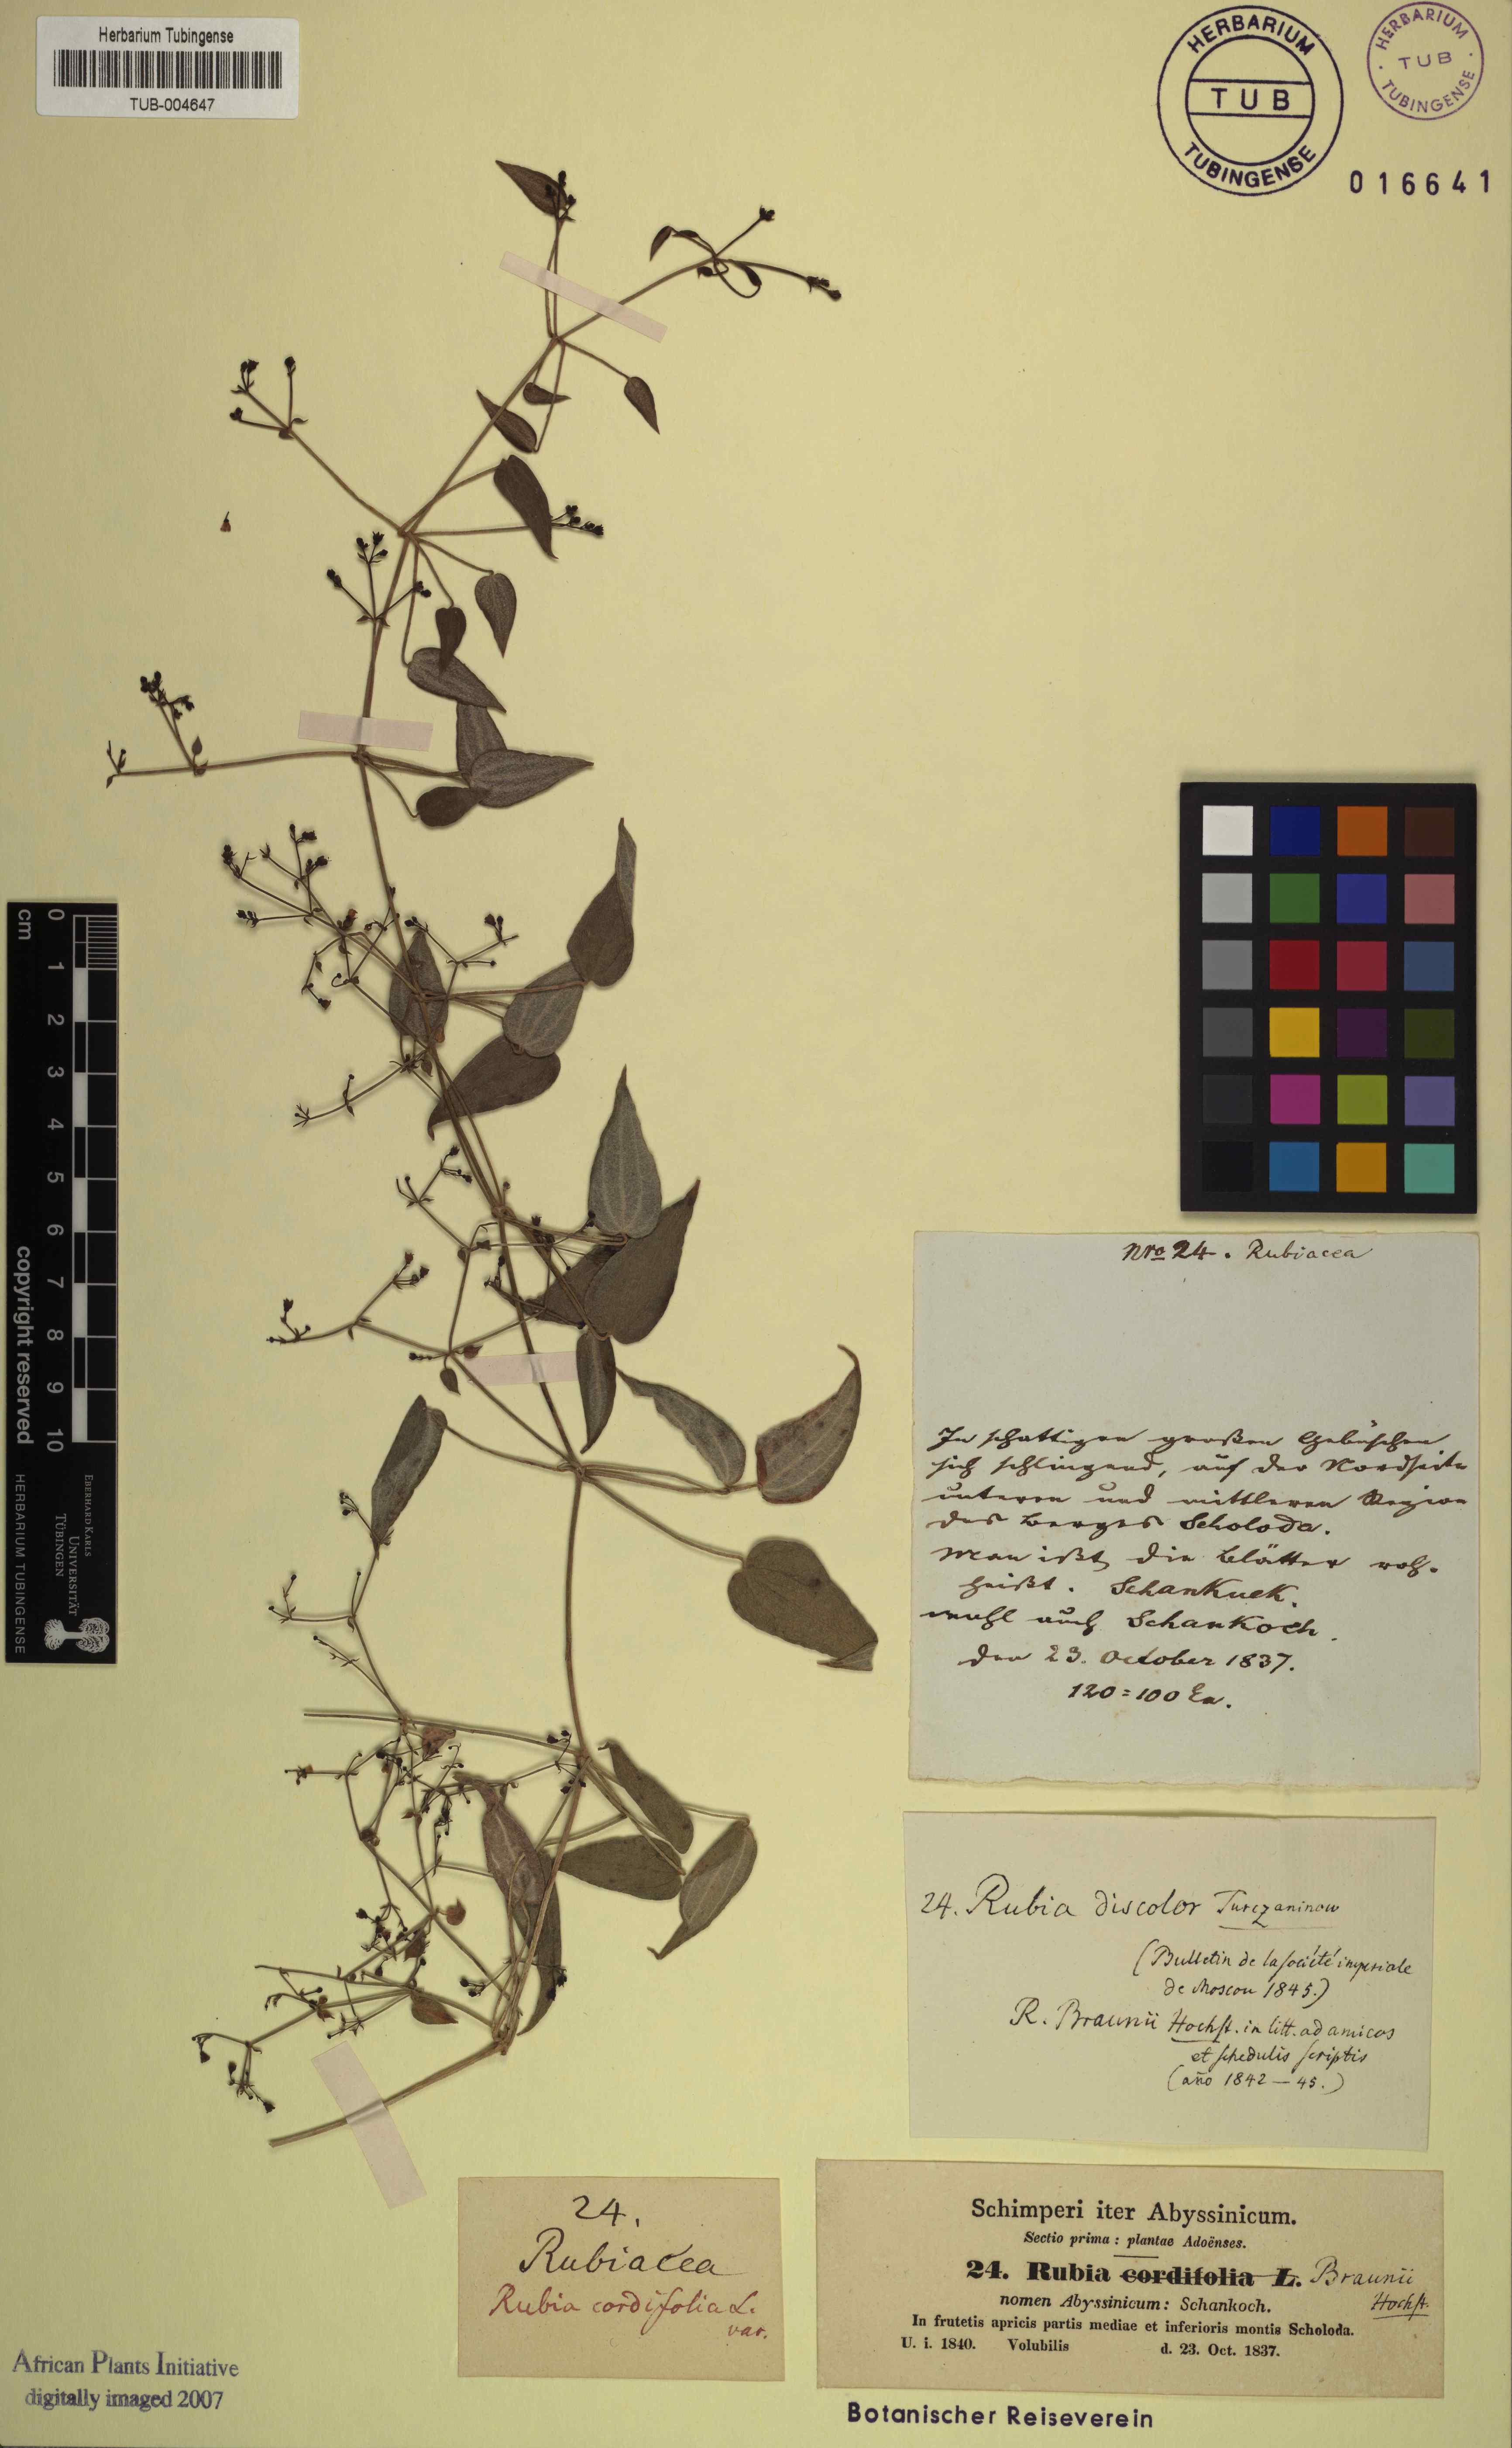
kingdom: Plantae
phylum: Tracheophyta
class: Magnoliopsida
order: Gentianales
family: Rubiaceae
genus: Rubia
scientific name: Rubia discolor
